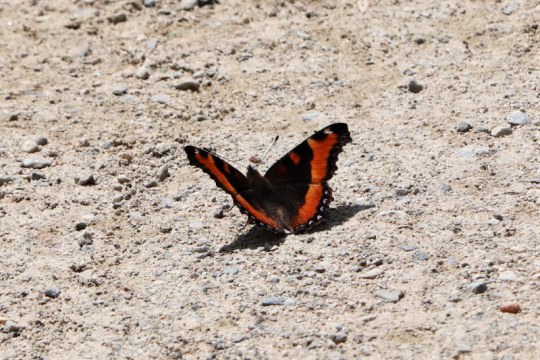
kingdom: Animalia
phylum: Arthropoda
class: Insecta
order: Lepidoptera
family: Nymphalidae
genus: Aglais
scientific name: Aglais milberti
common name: Milbert's Tortoiseshell
